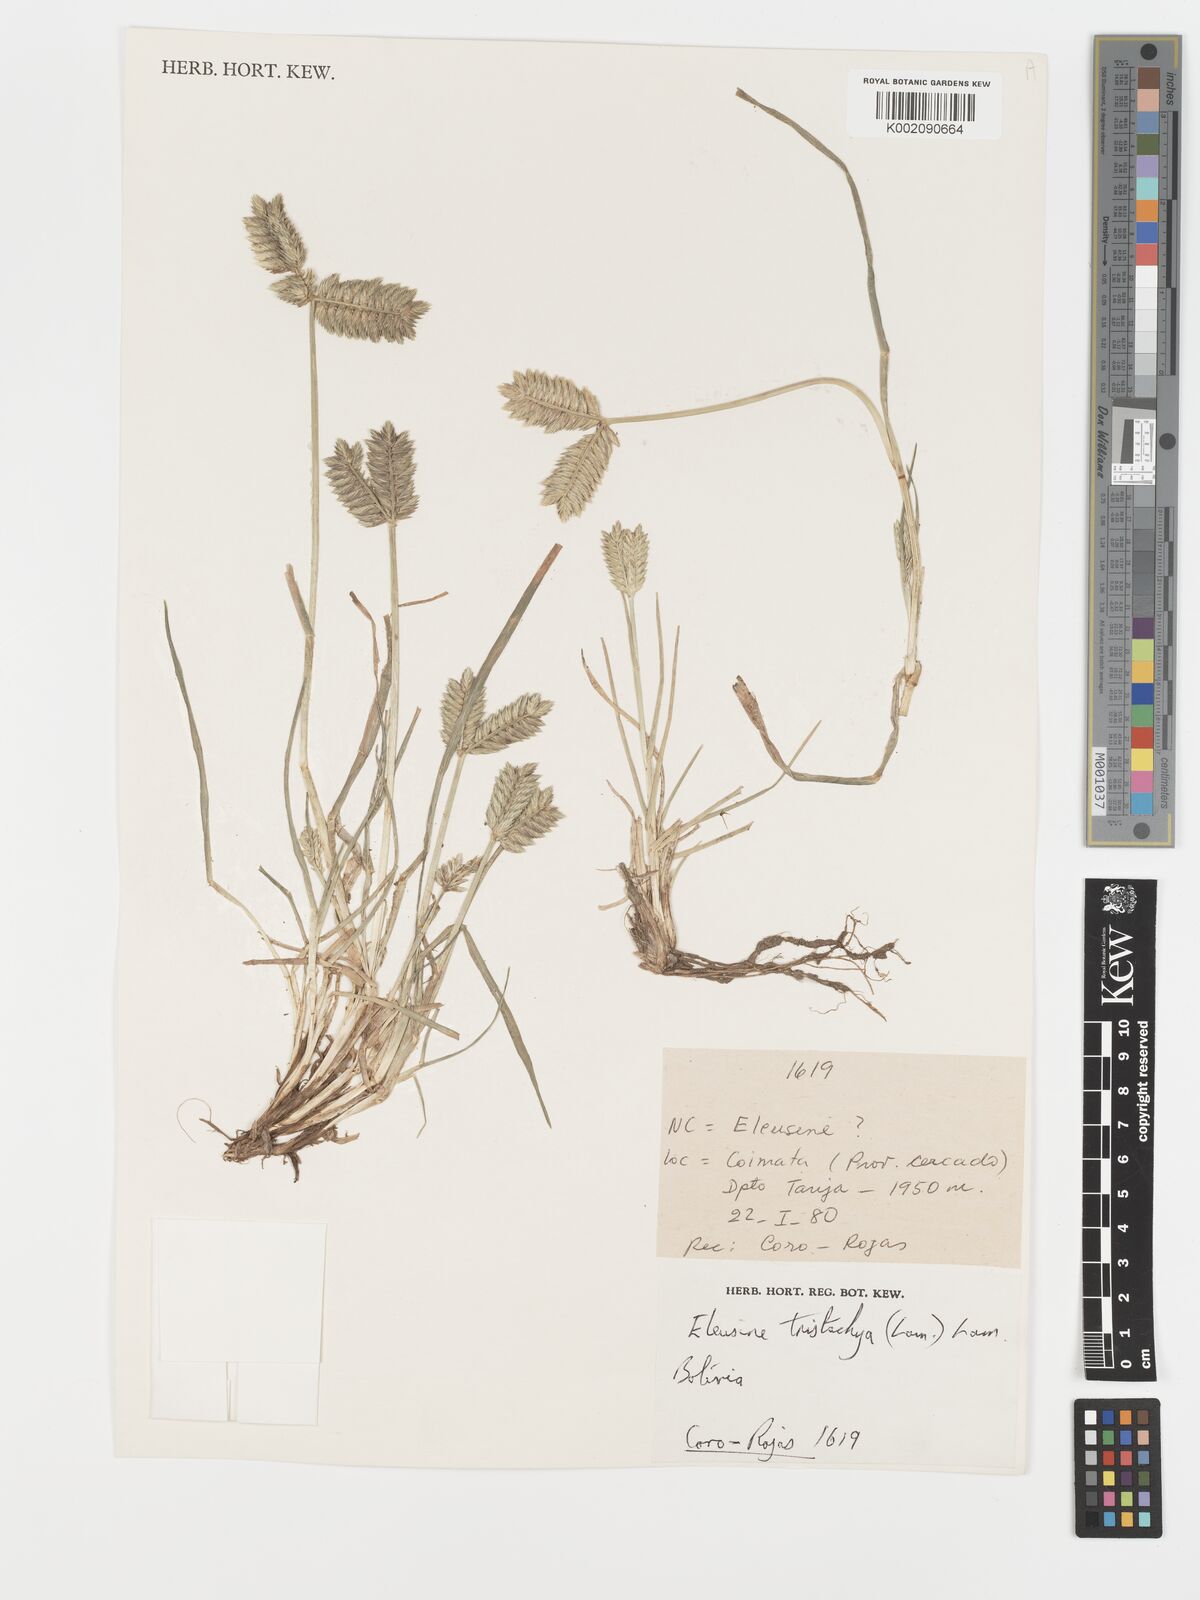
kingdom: Plantae
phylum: Tracheophyta
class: Liliopsida
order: Poales
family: Poaceae
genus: Eleusine
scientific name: Eleusine tristachya
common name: American yard-grass
